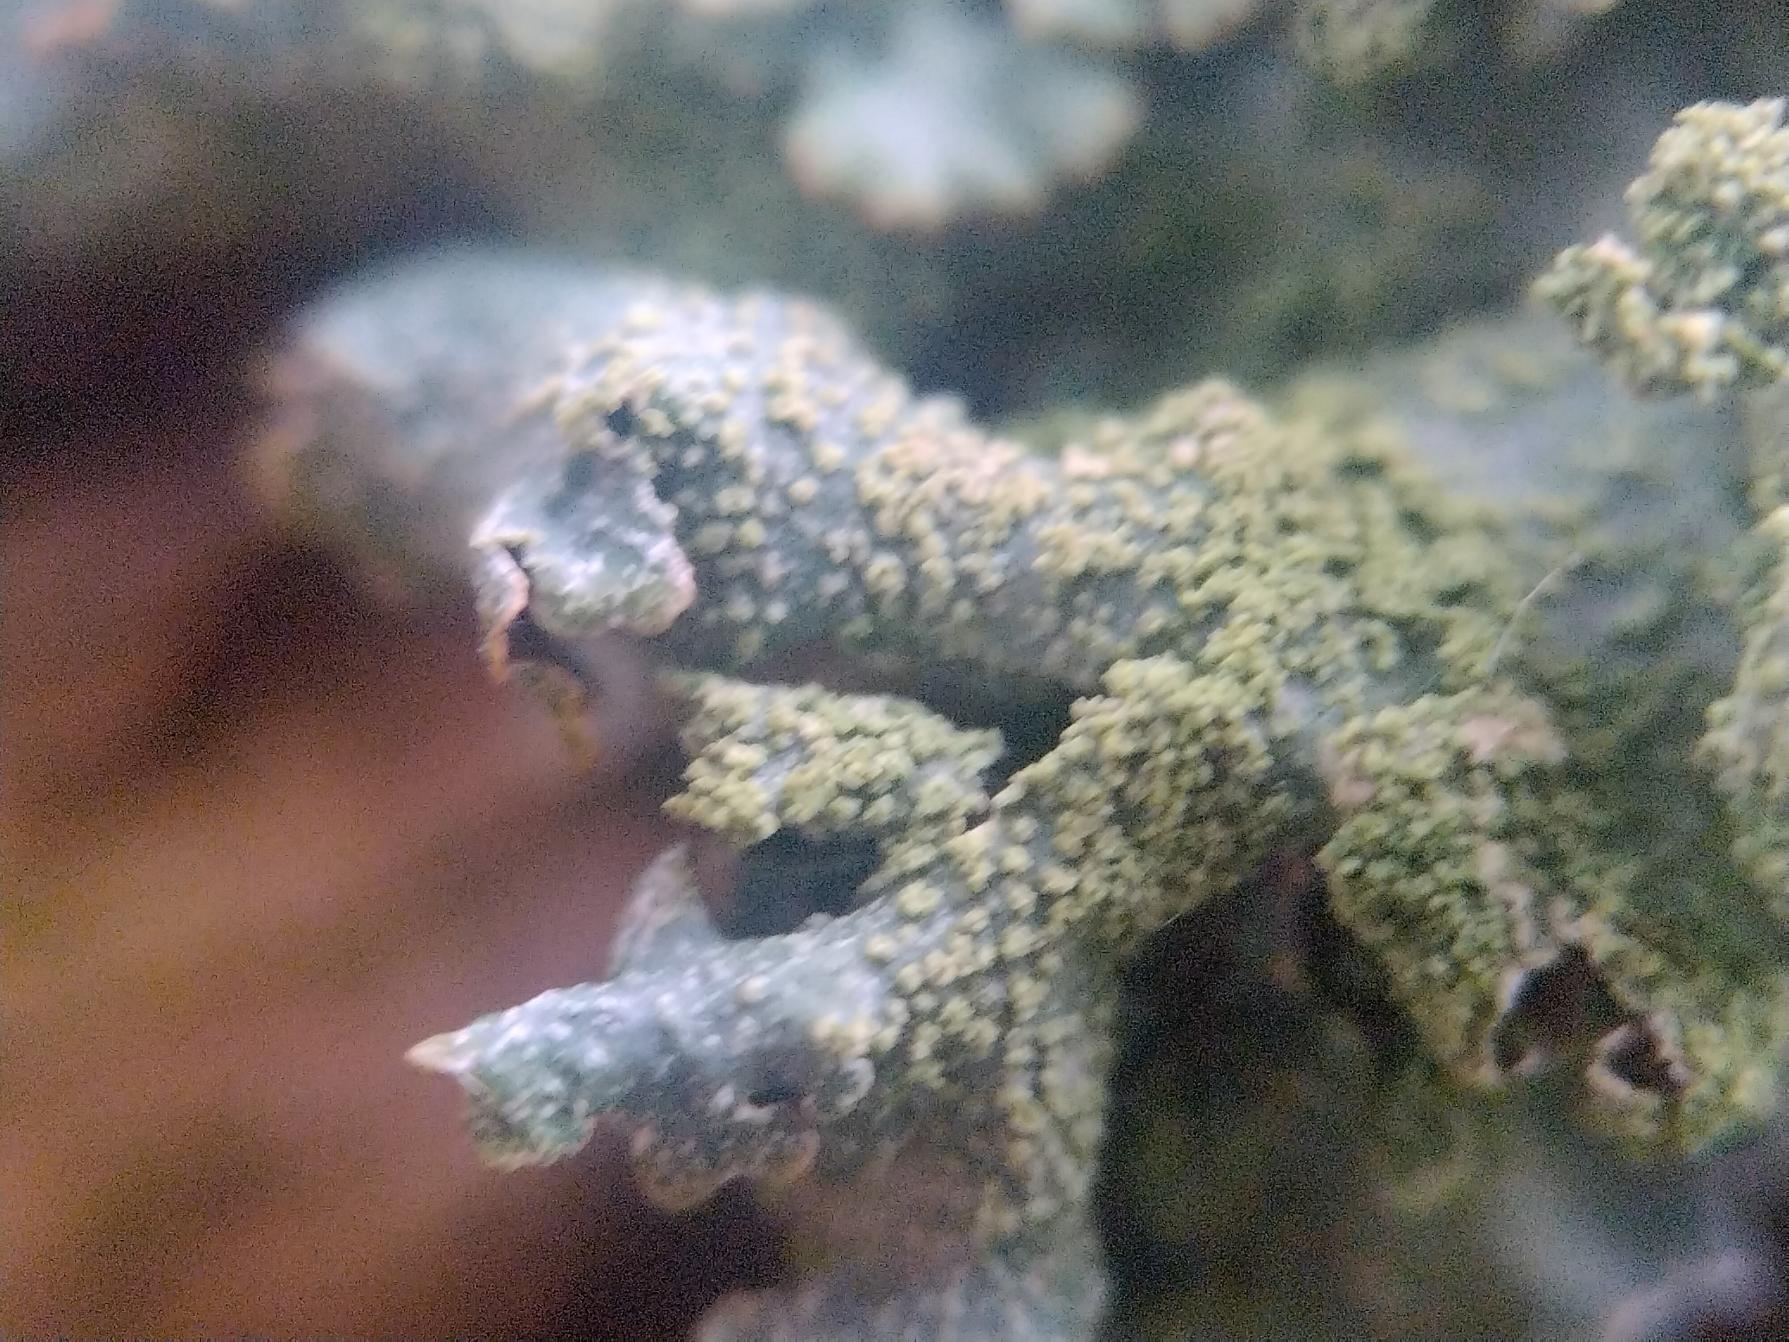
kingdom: Fungi
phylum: Ascomycota
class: Lecanoromycetes
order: Lecanorales
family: Parmeliaceae
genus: Parmelia
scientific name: Parmelia submontana
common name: Langlobet skållav
